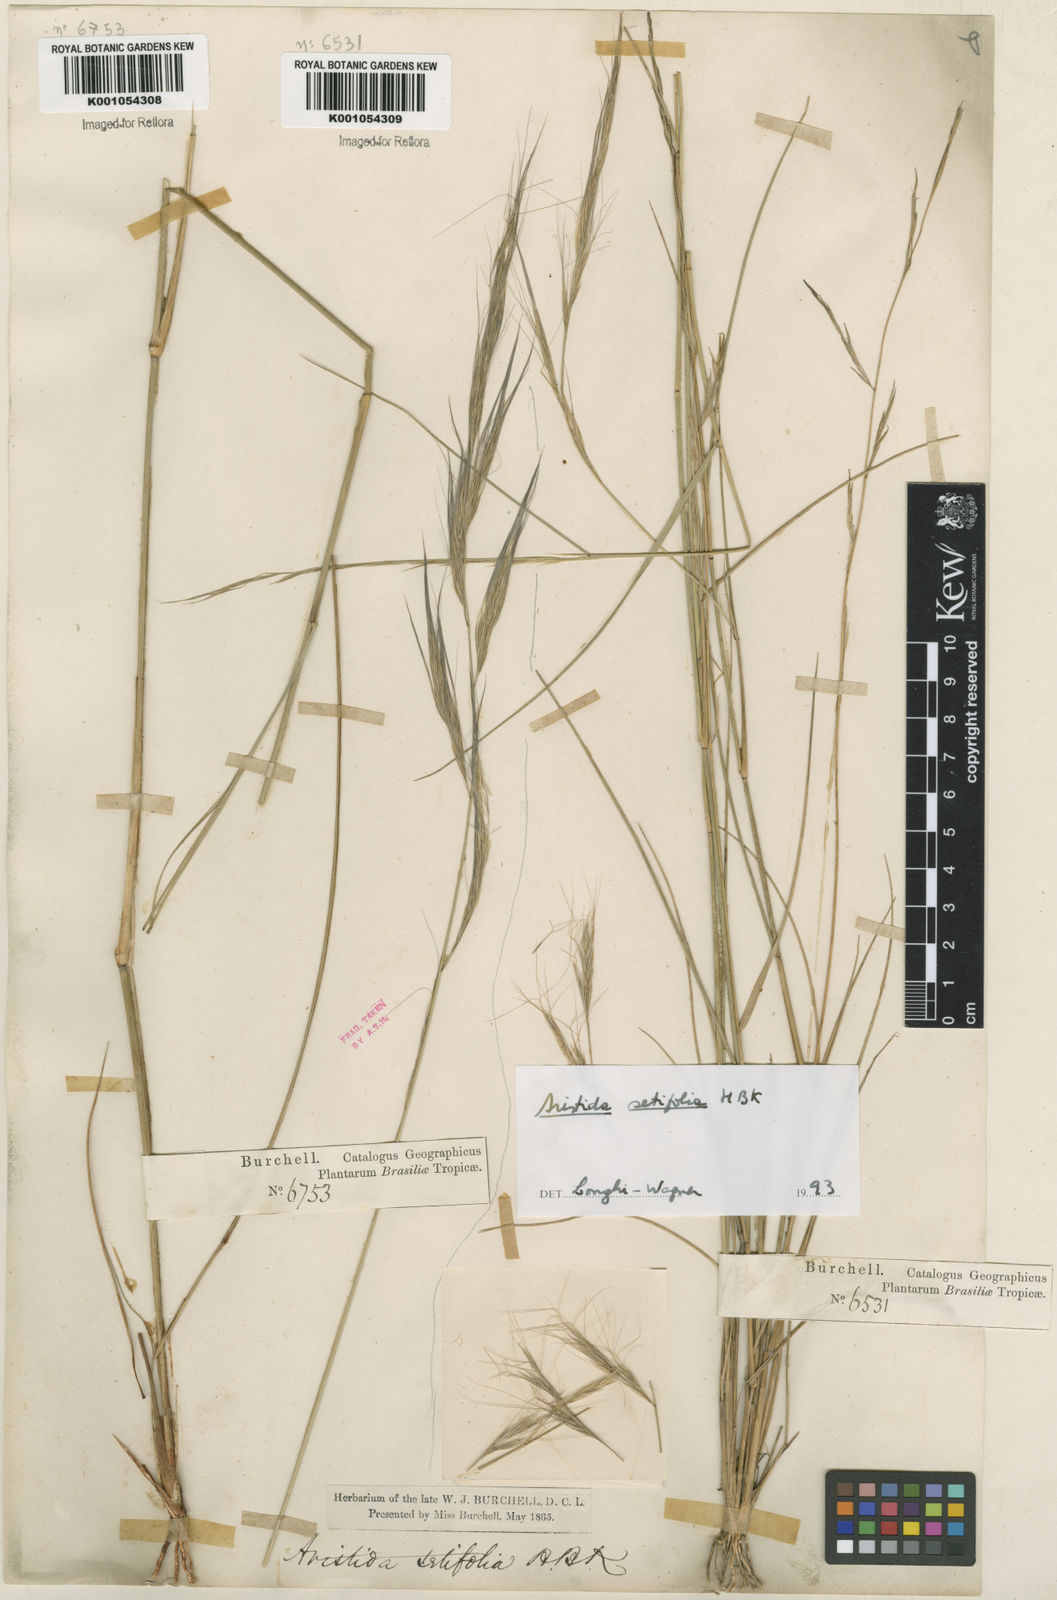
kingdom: Plantae
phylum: Tracheophyta
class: Liliopsida
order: Poales
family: Poaceae
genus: Aristida
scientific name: Aristida setifolia
